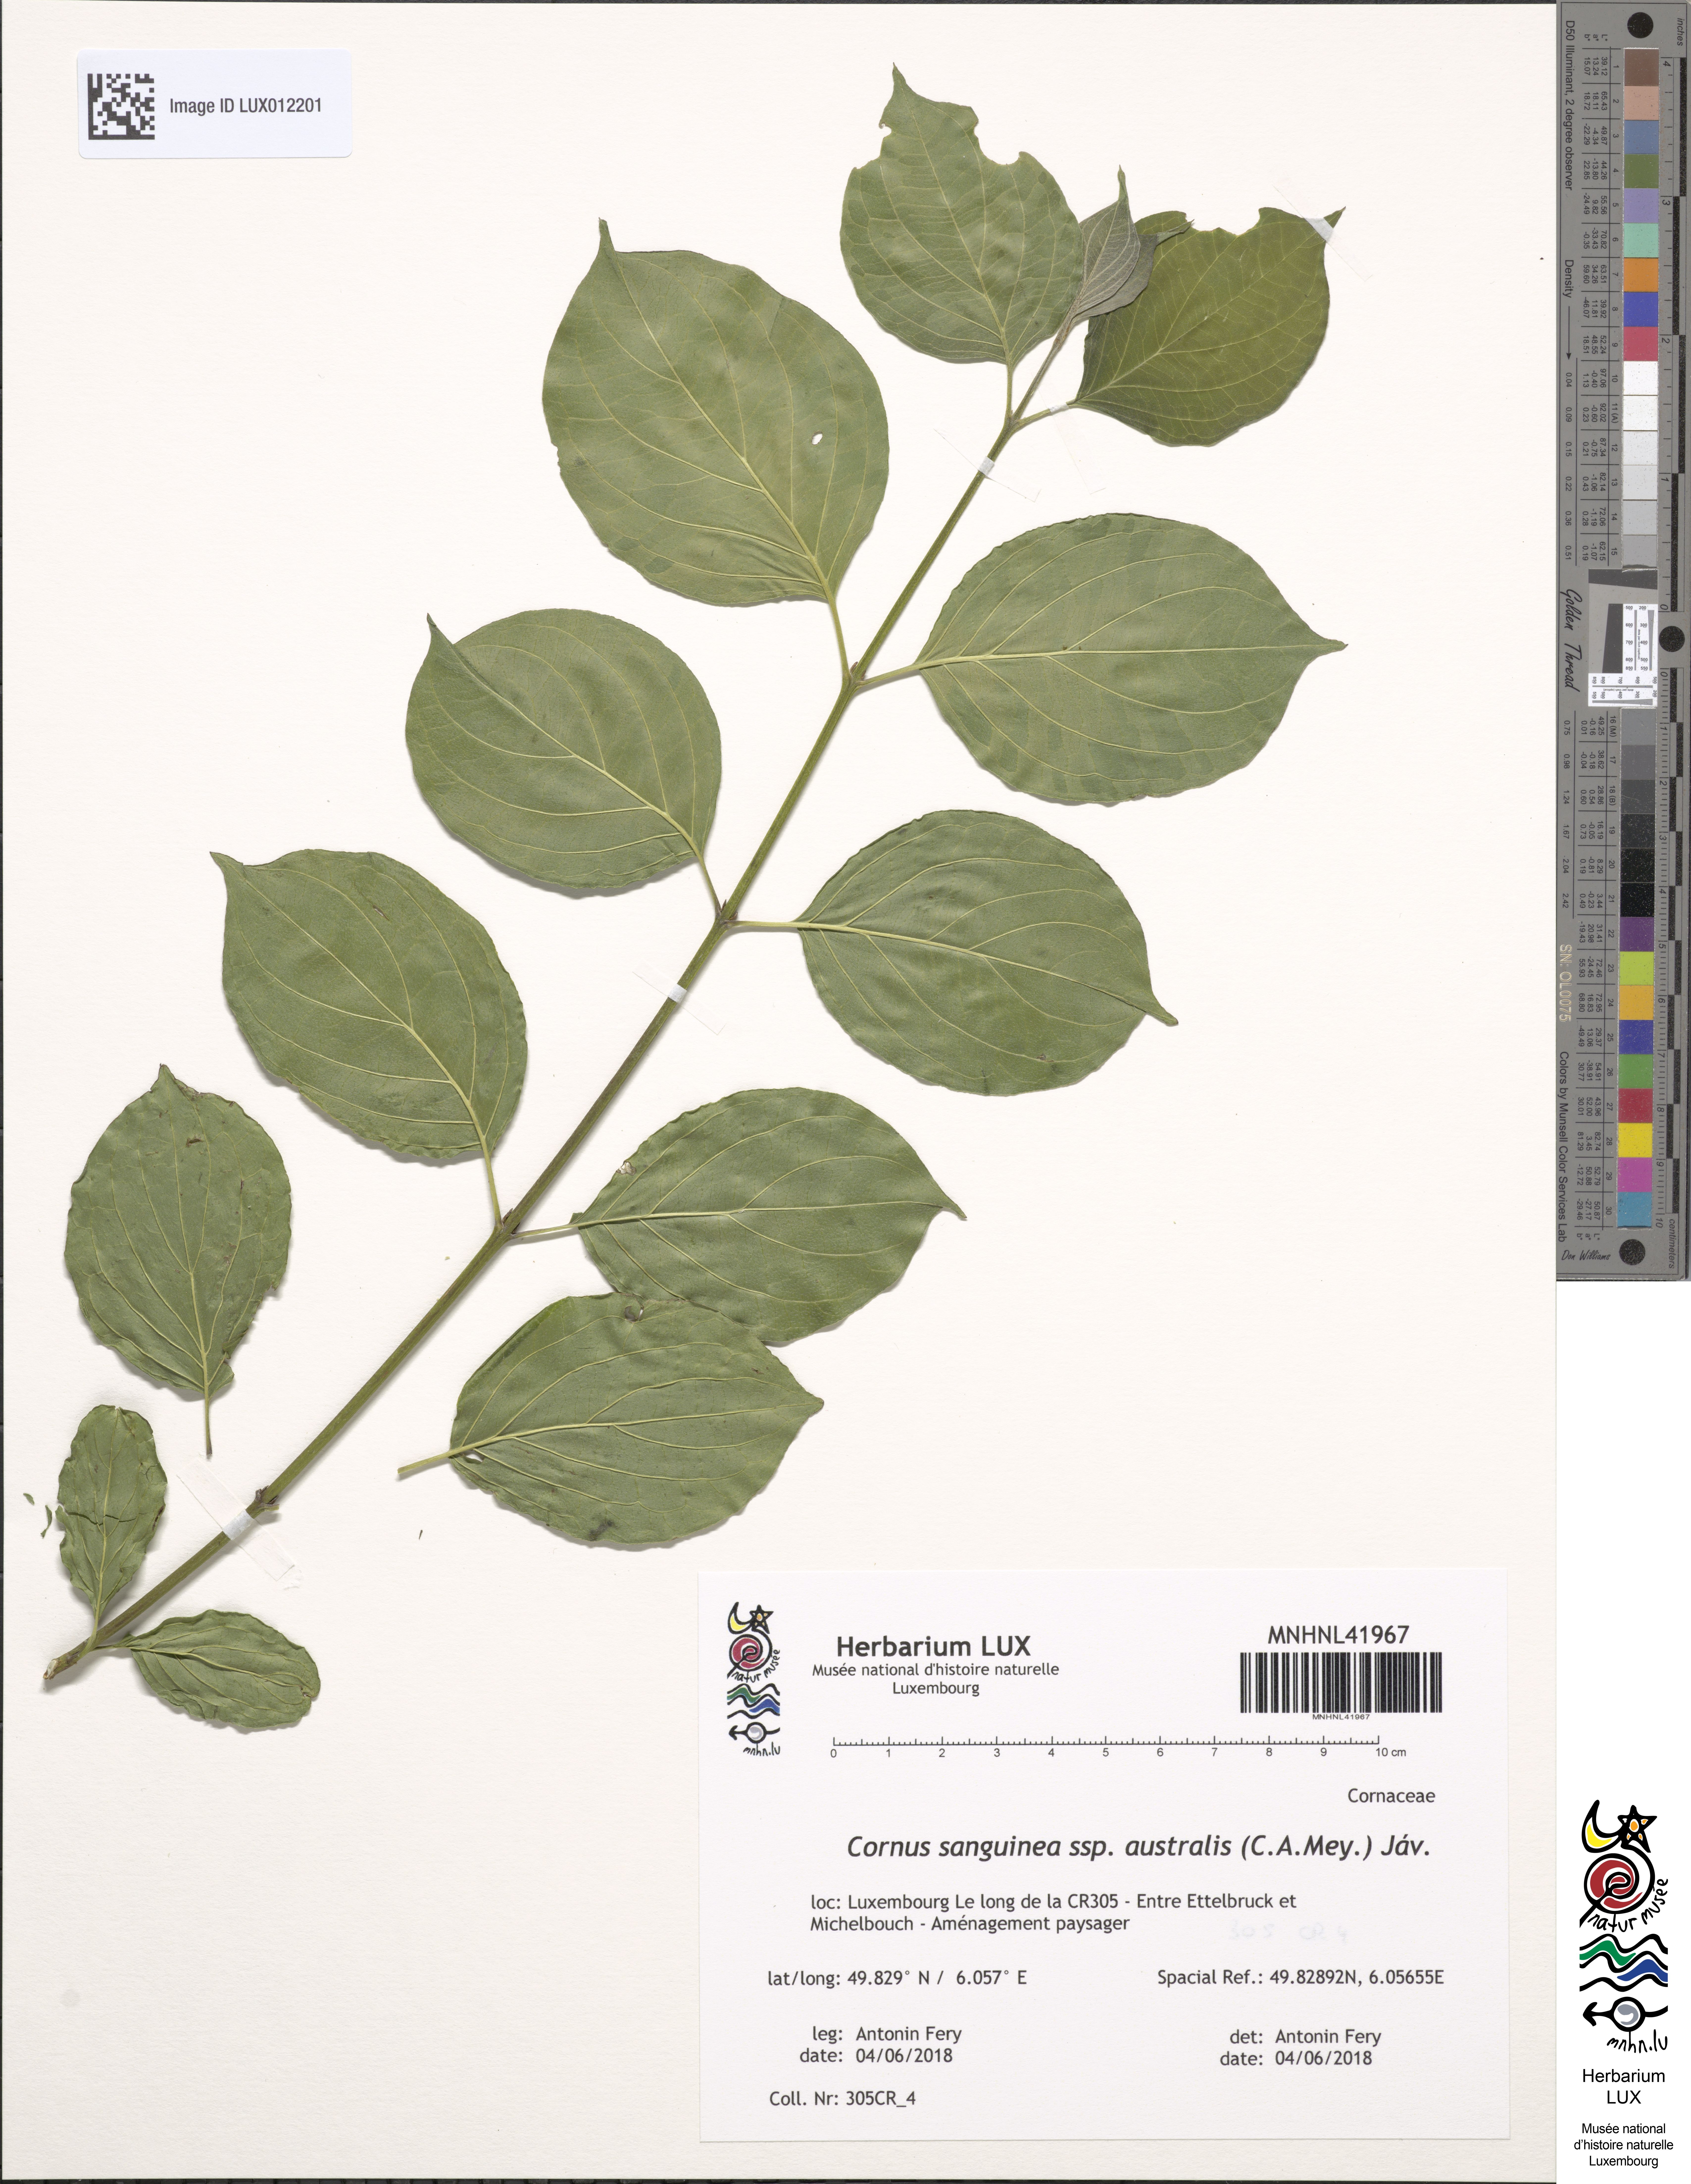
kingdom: Plantae
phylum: Tracheophyta
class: Magnoliopsida
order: Cornales
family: Cornaceae
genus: Cornus
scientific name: Cornus sanguinea
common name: Dogwood
